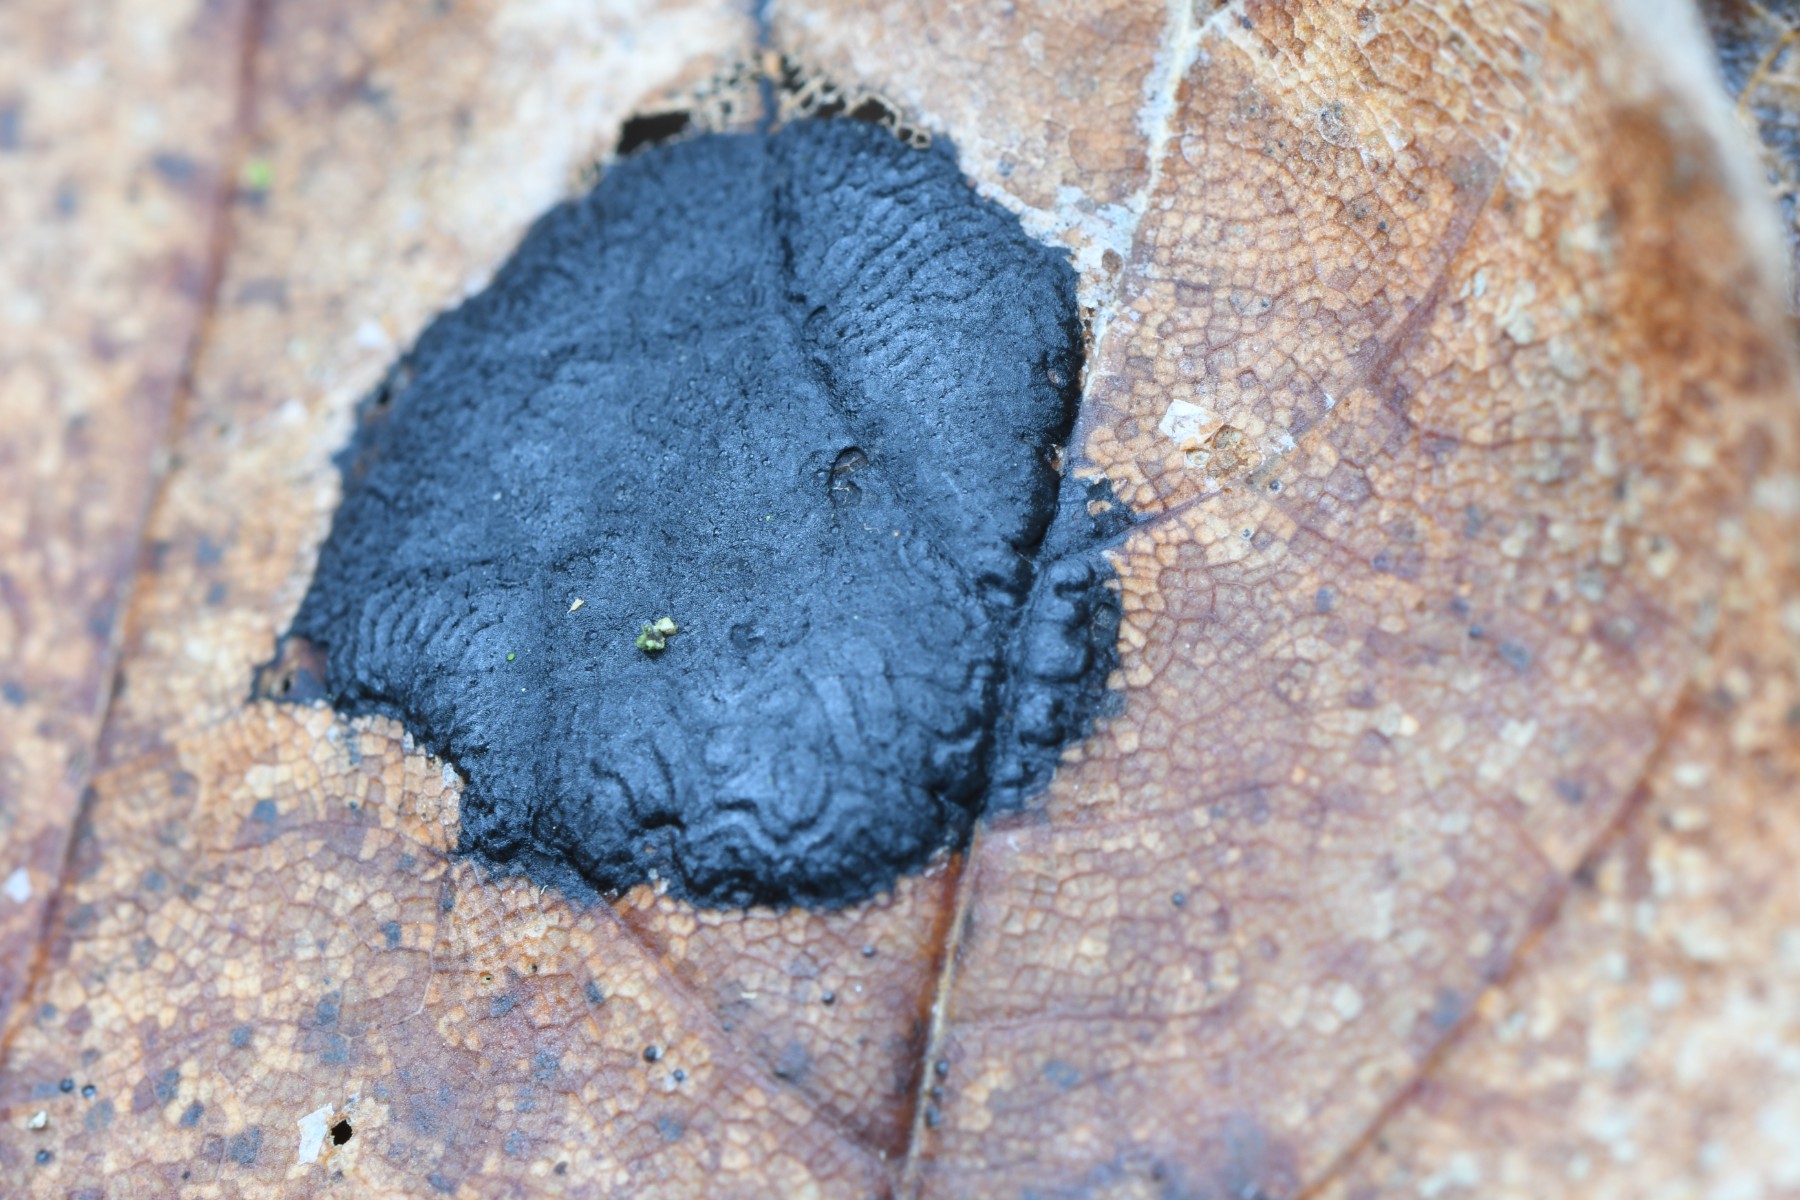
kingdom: Fungi
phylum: Ascomycota
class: Leotiomycetes
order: Rhytismatales
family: Rhytismataceae
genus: Rhytisma
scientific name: Rhytisma acerinum
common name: ahorn-rynkeplet
